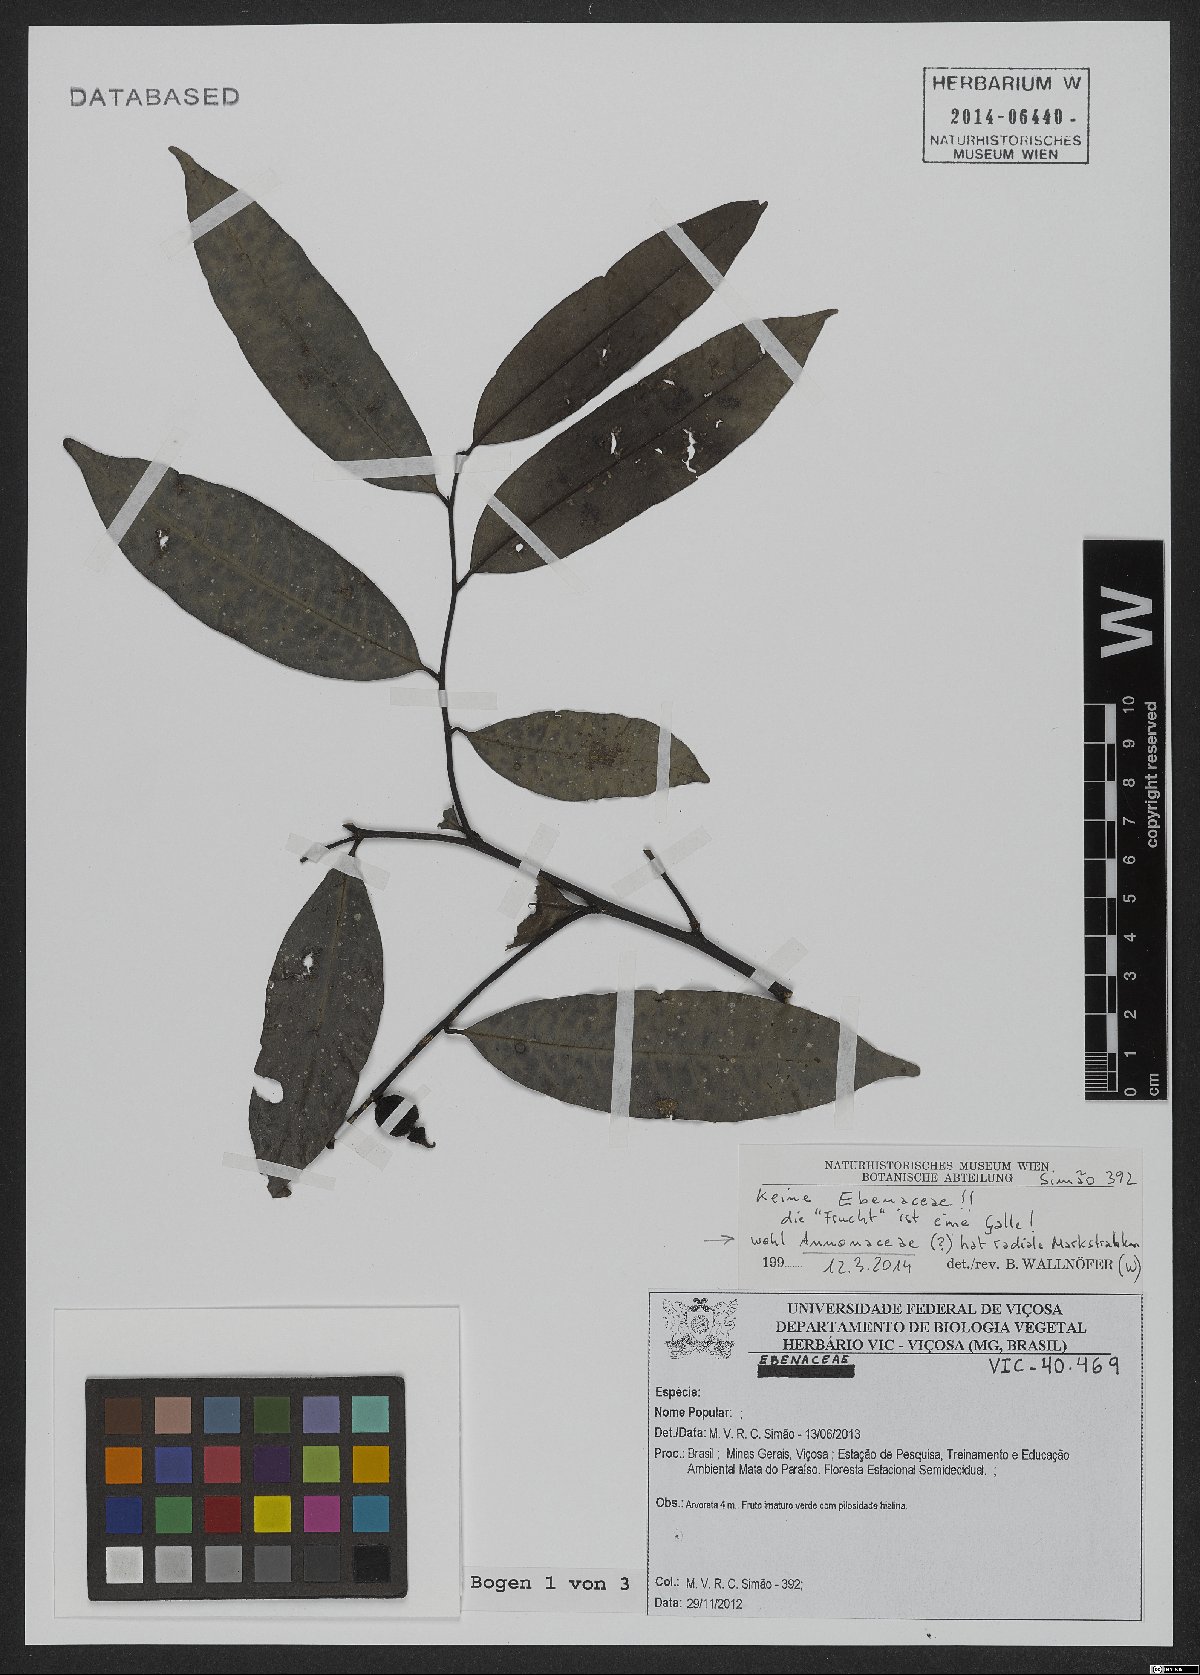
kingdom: Plantae
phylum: Tracheophyta
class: Magnoliopsida
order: Magnoliales
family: Annonaceae
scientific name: Annonaceae
